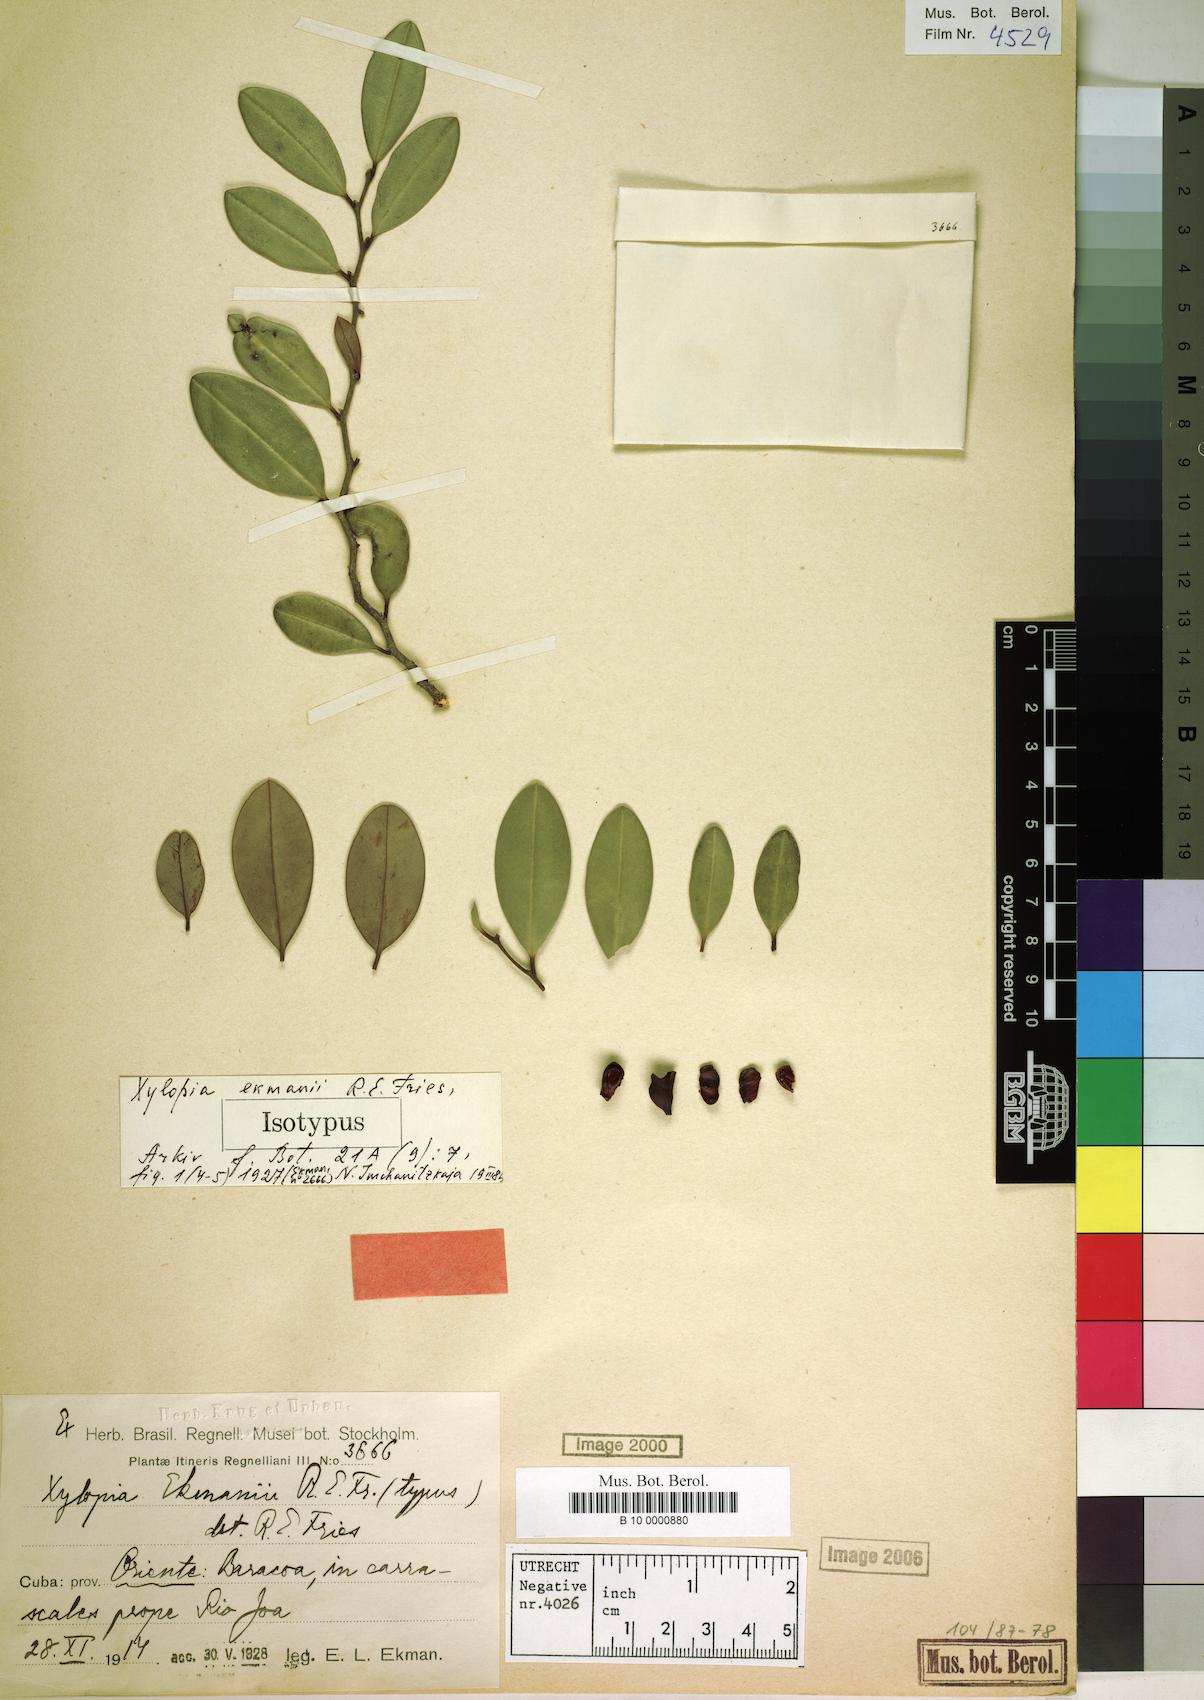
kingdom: Plantae
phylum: Tracheophyta
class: Magnoliopsida
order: Magnoliales
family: Annonaceae
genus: Xylopia
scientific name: Xylopia ekmanii
